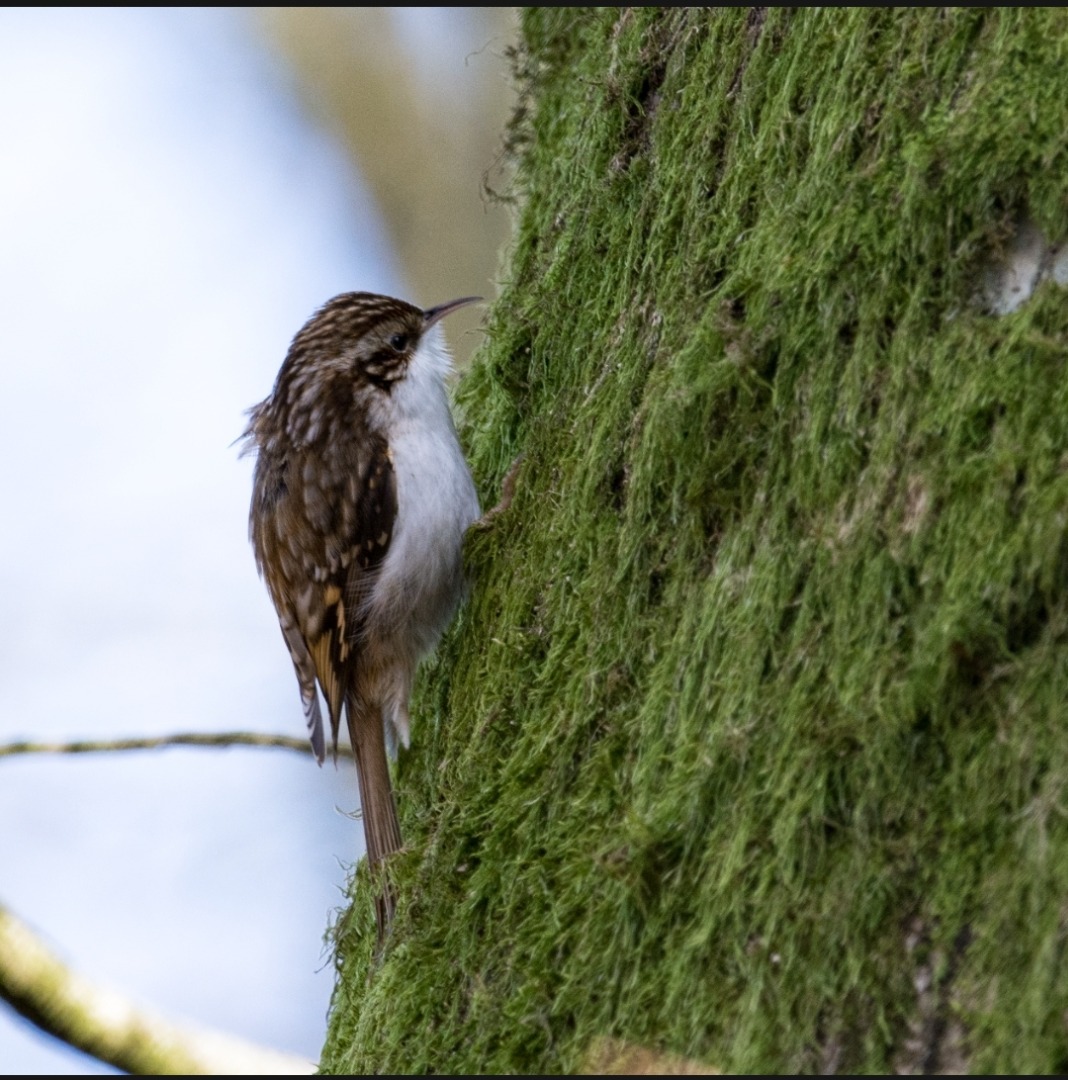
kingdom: Animalia
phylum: Chordata
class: Aves
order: Passeriformes
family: Certhiidae
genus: Certhia
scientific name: Certhia familiaris
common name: Træløber
